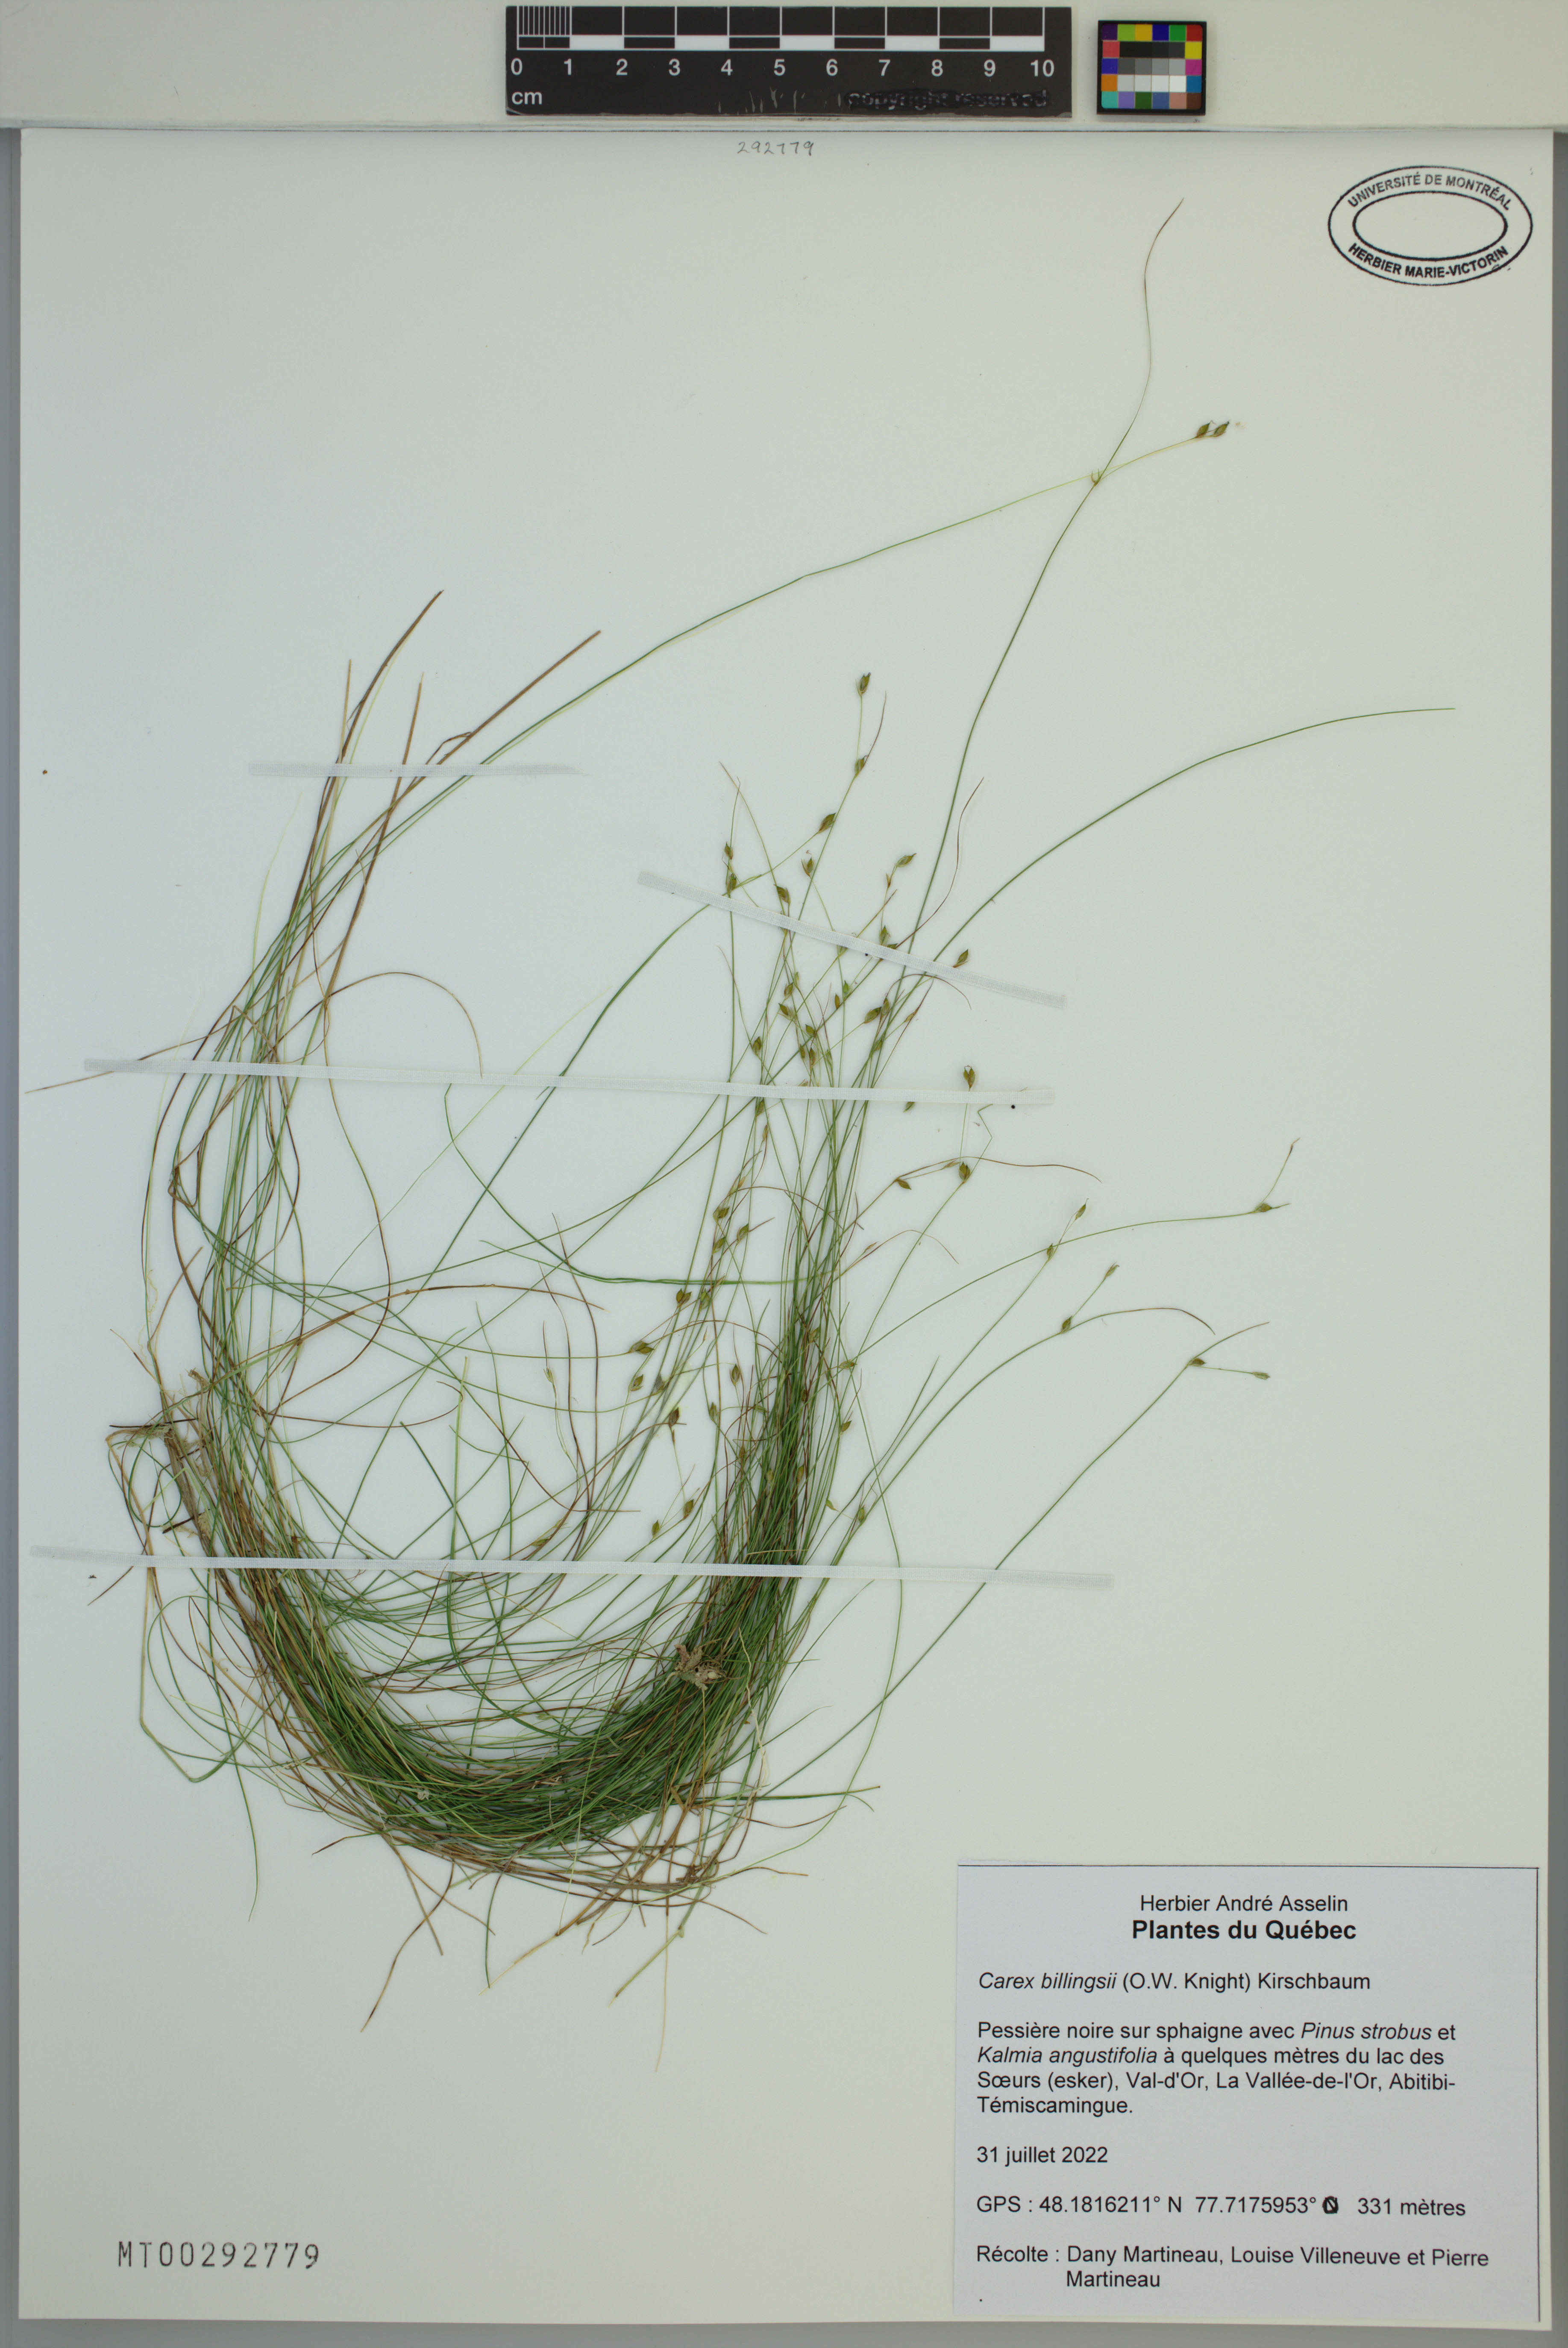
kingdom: Plantae
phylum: Tracheophyta
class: Liliopsida
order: Poales
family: Cyperaceae
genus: Carex
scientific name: Carex trisperma
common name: Three-seeded sedge
